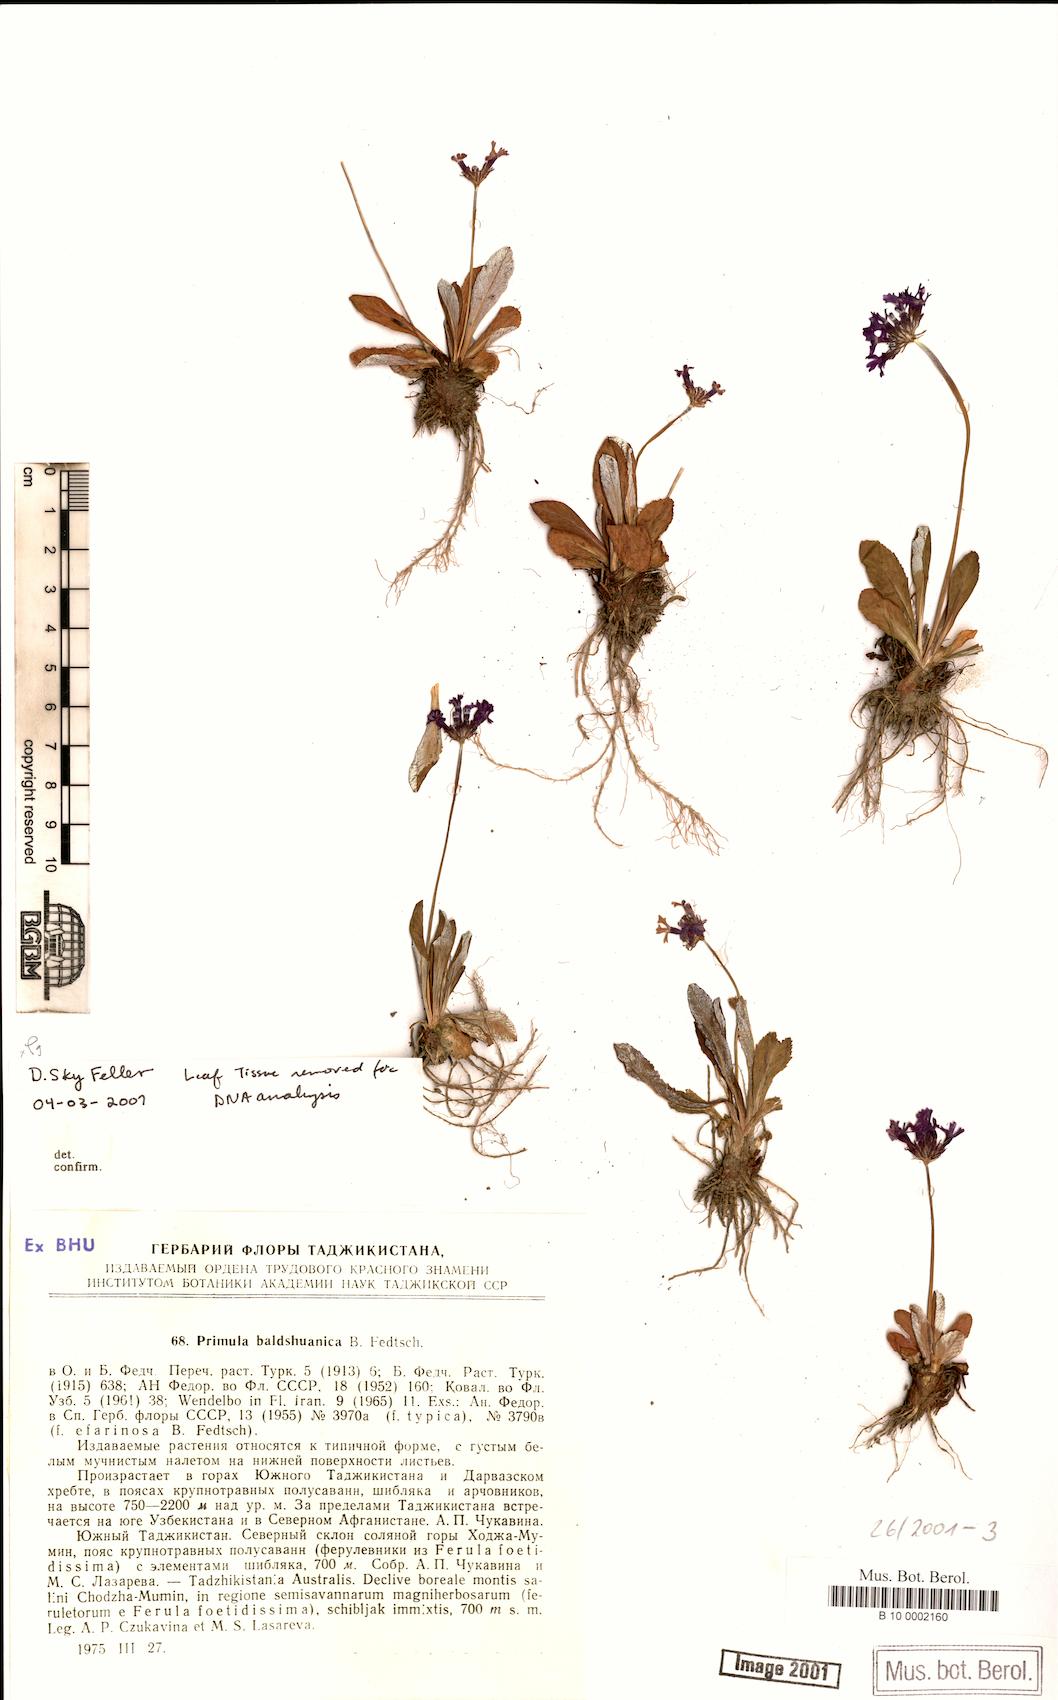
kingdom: Plantae
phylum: Tracheophyta
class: Magnoliopsida
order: Ericales
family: Primulaceae
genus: Primula
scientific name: Primula baldshuanica
